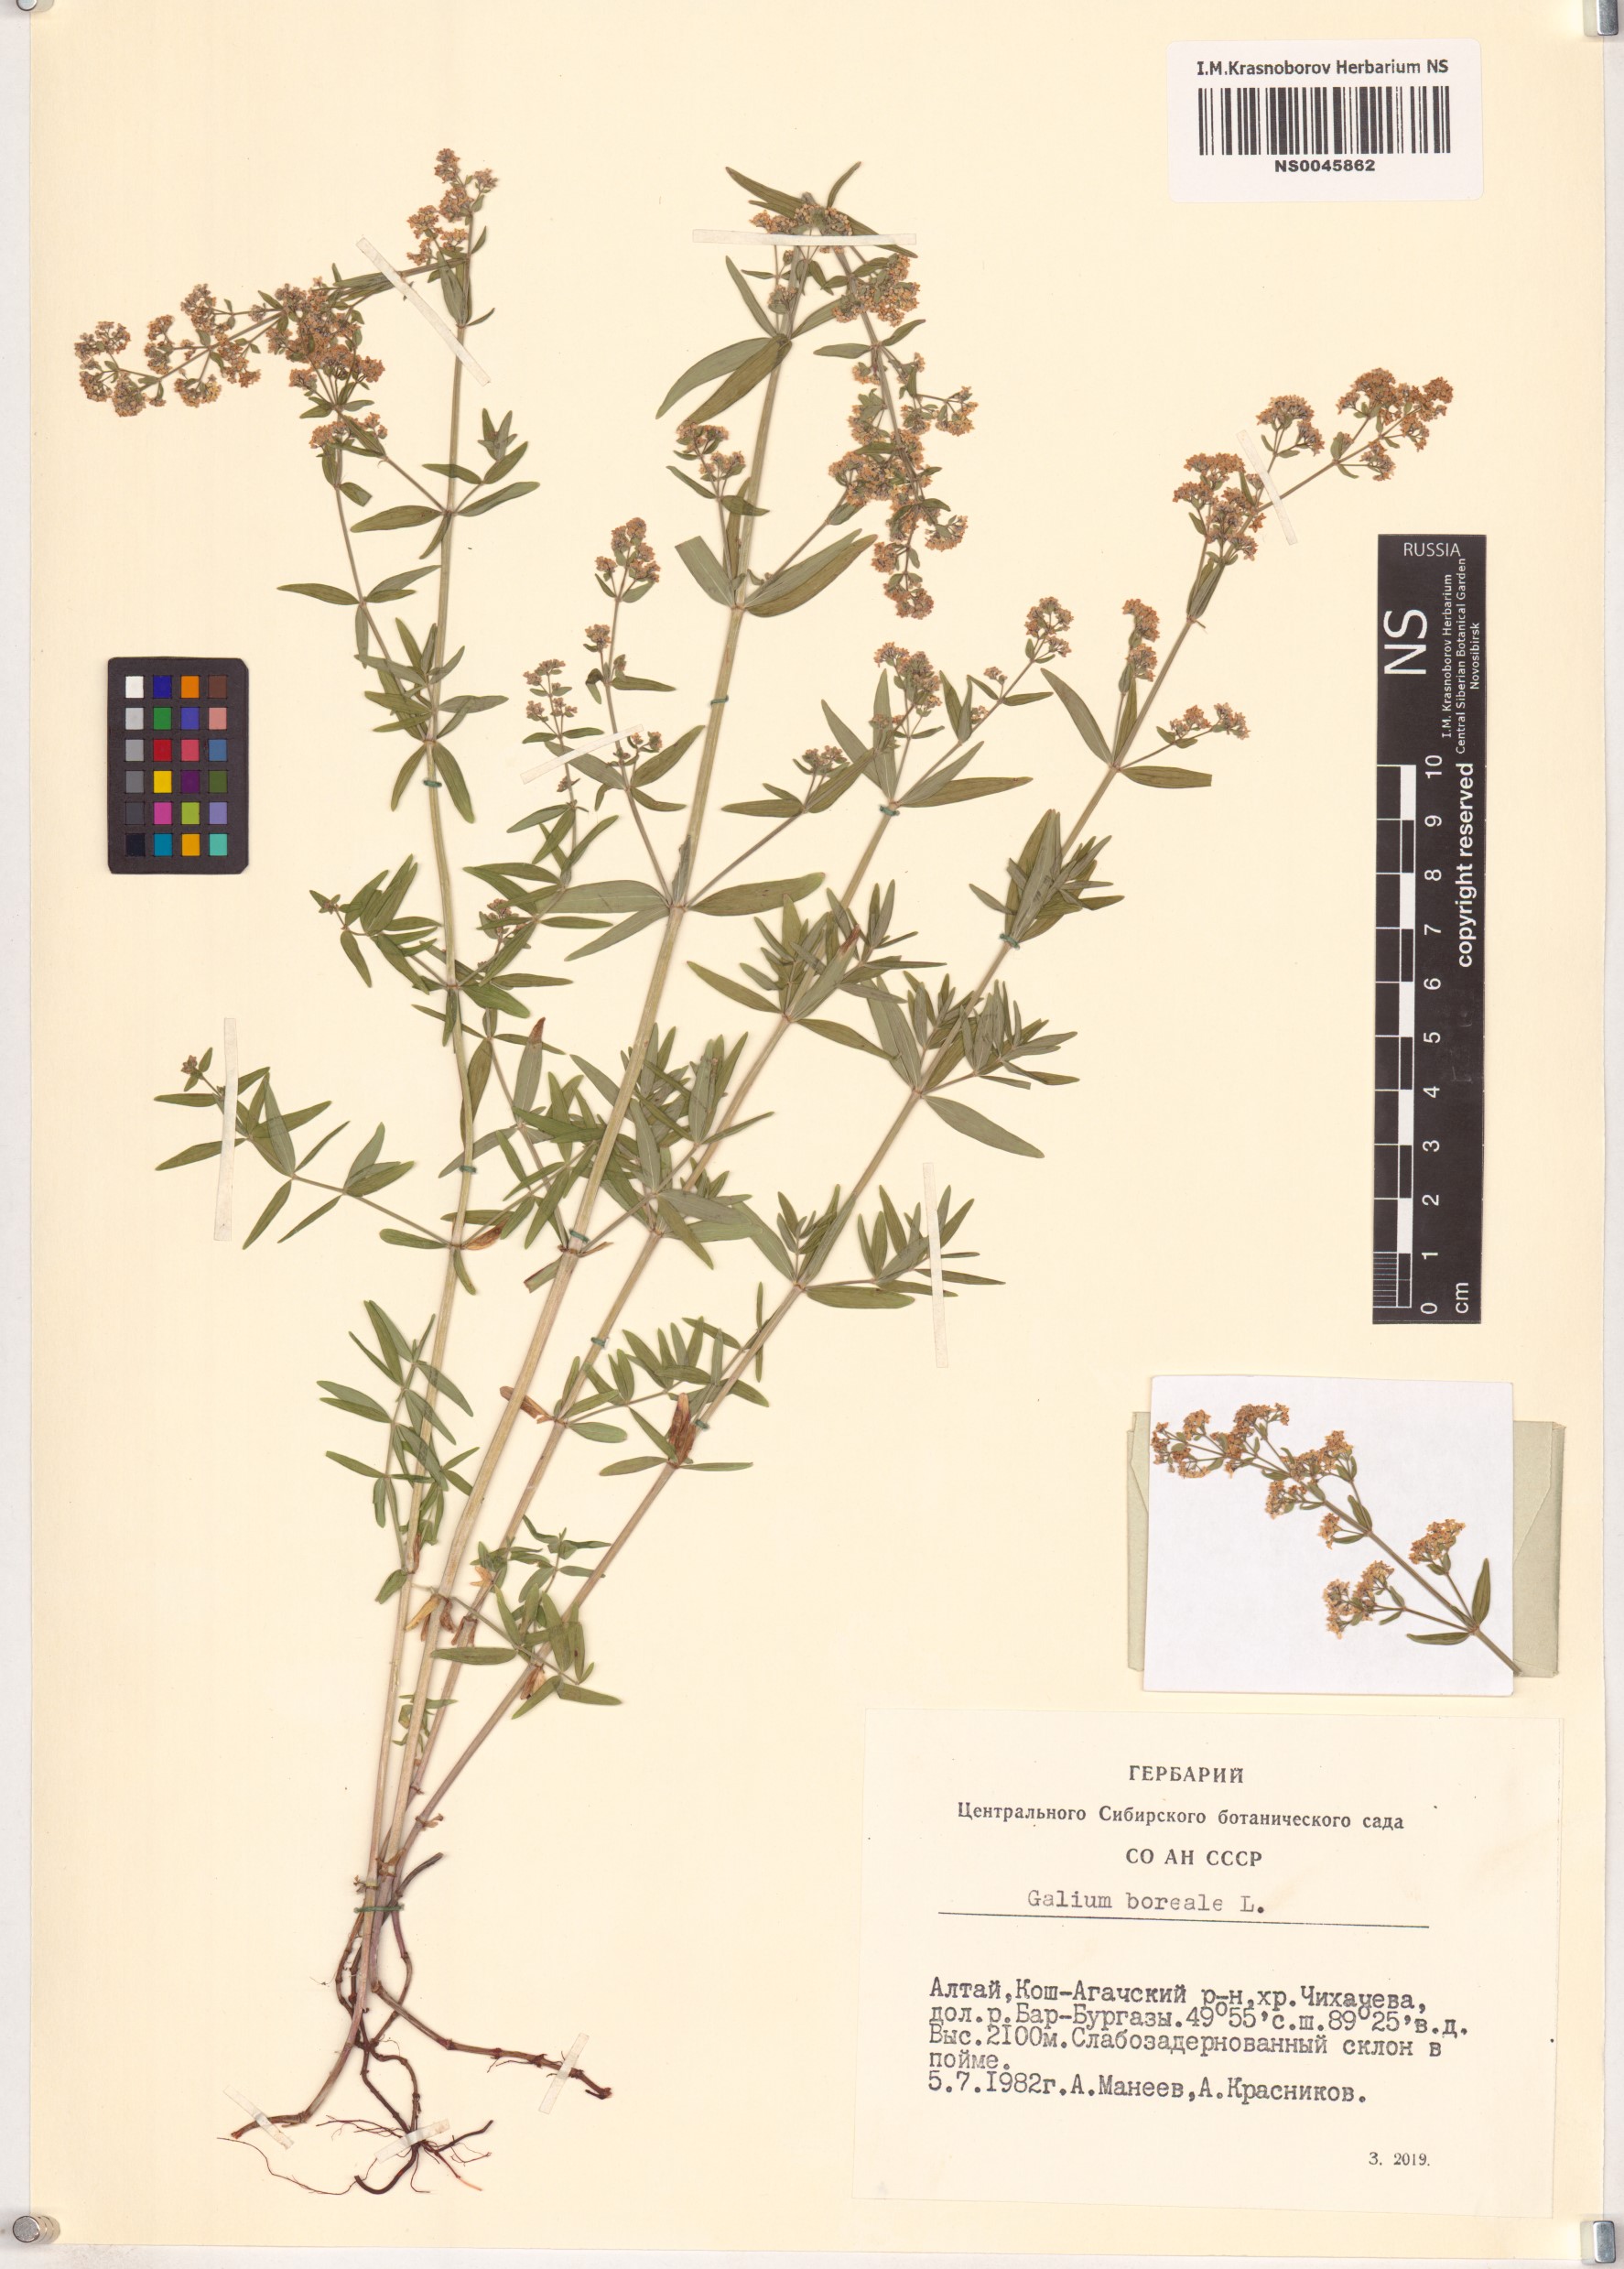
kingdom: Plantae
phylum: Tracheophyta
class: Magnoliopsida
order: Gentianales
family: Rubiaceae
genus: Galium
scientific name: Galium boreale
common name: Northern bedstraw
